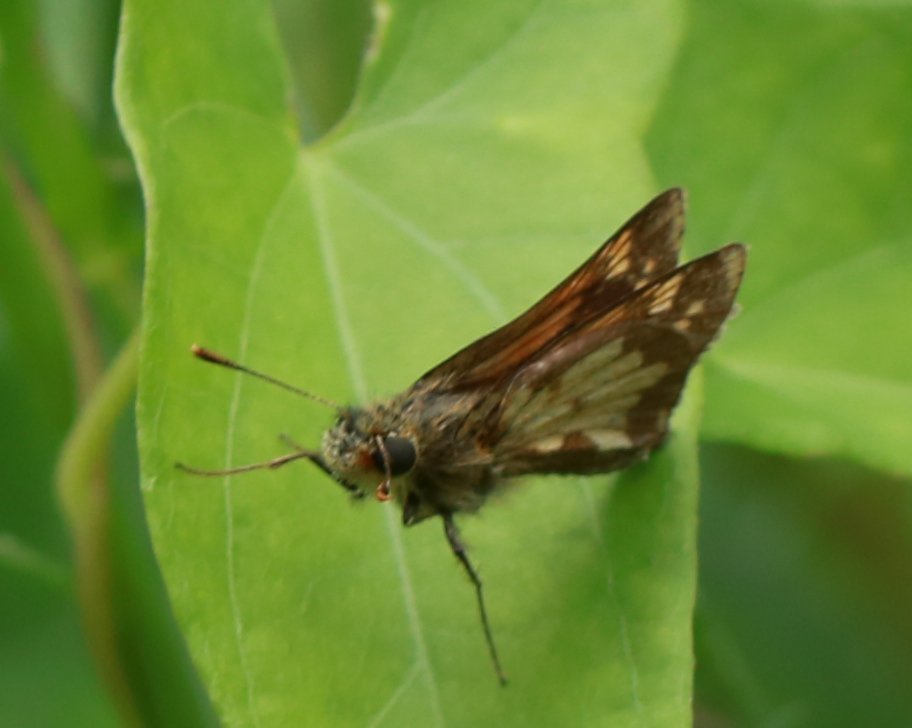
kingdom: Animalia
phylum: Arthropoda
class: Insecta
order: Lepidoptera
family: Hesperiidae
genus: Polites
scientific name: Polites coras
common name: Peck's Skipper
